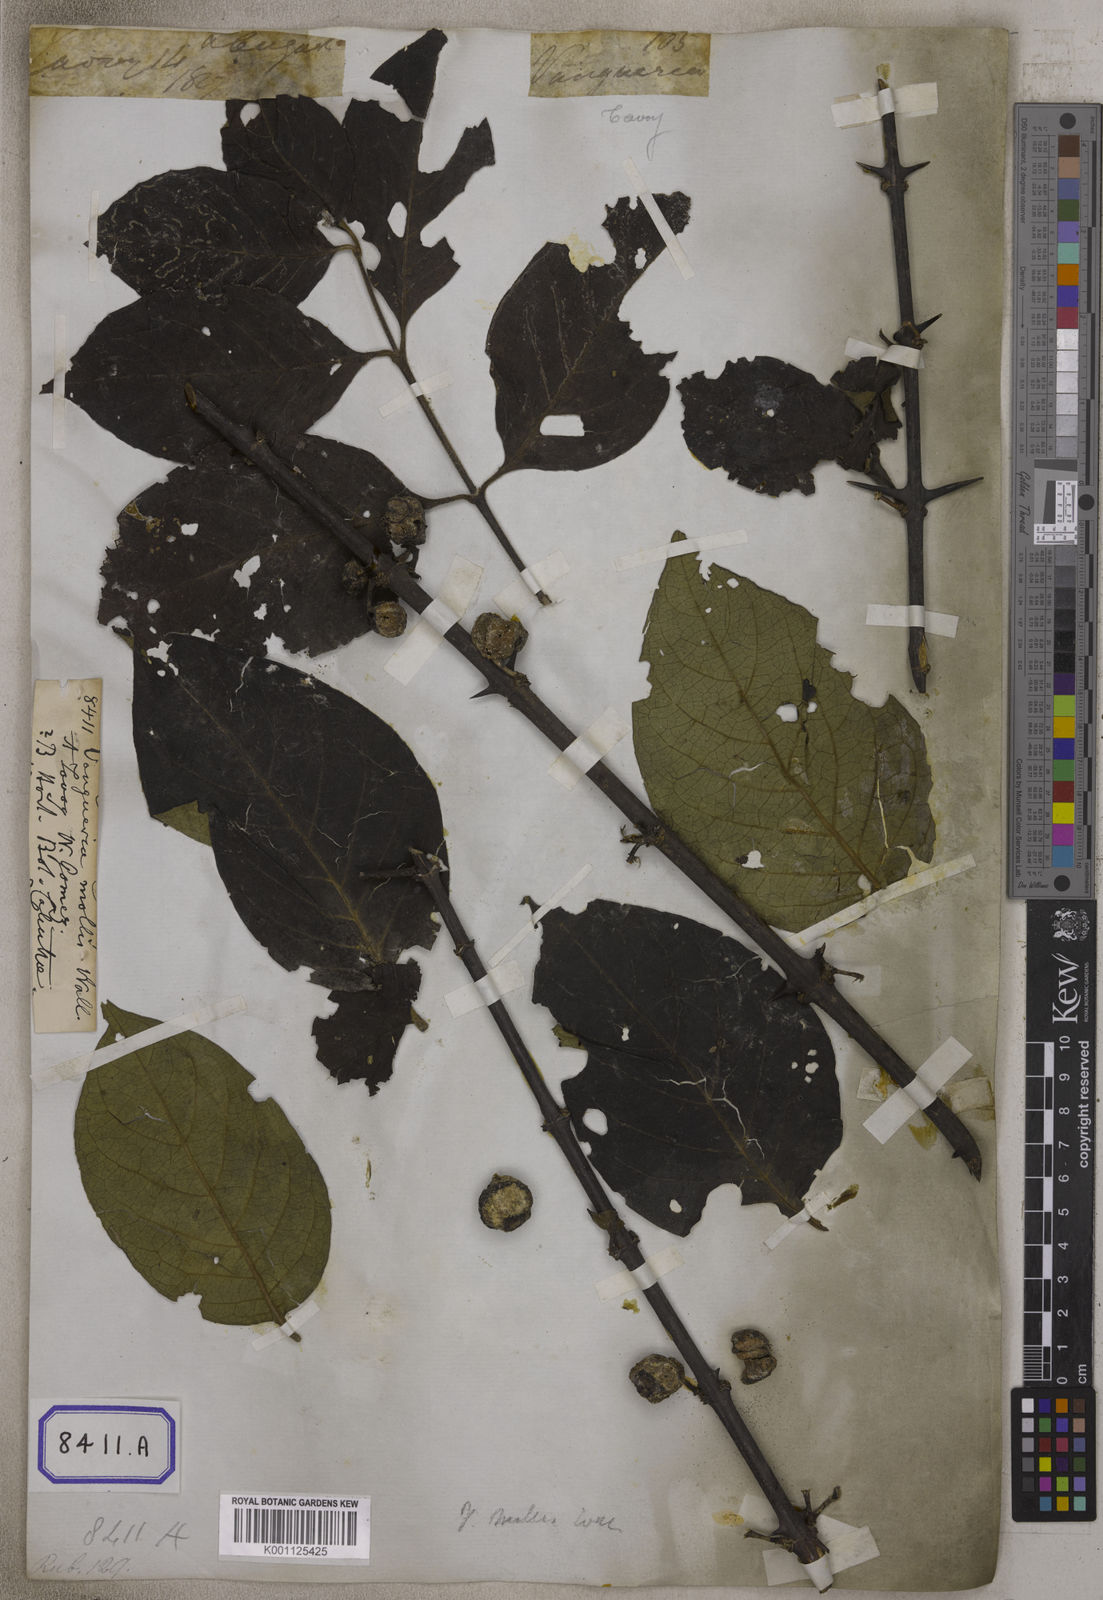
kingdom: Plantae
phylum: Tracheophyta
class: Magnoliopsida
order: Gentianales
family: Rubiaceae
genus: Meyna
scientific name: Meyna spinosa
